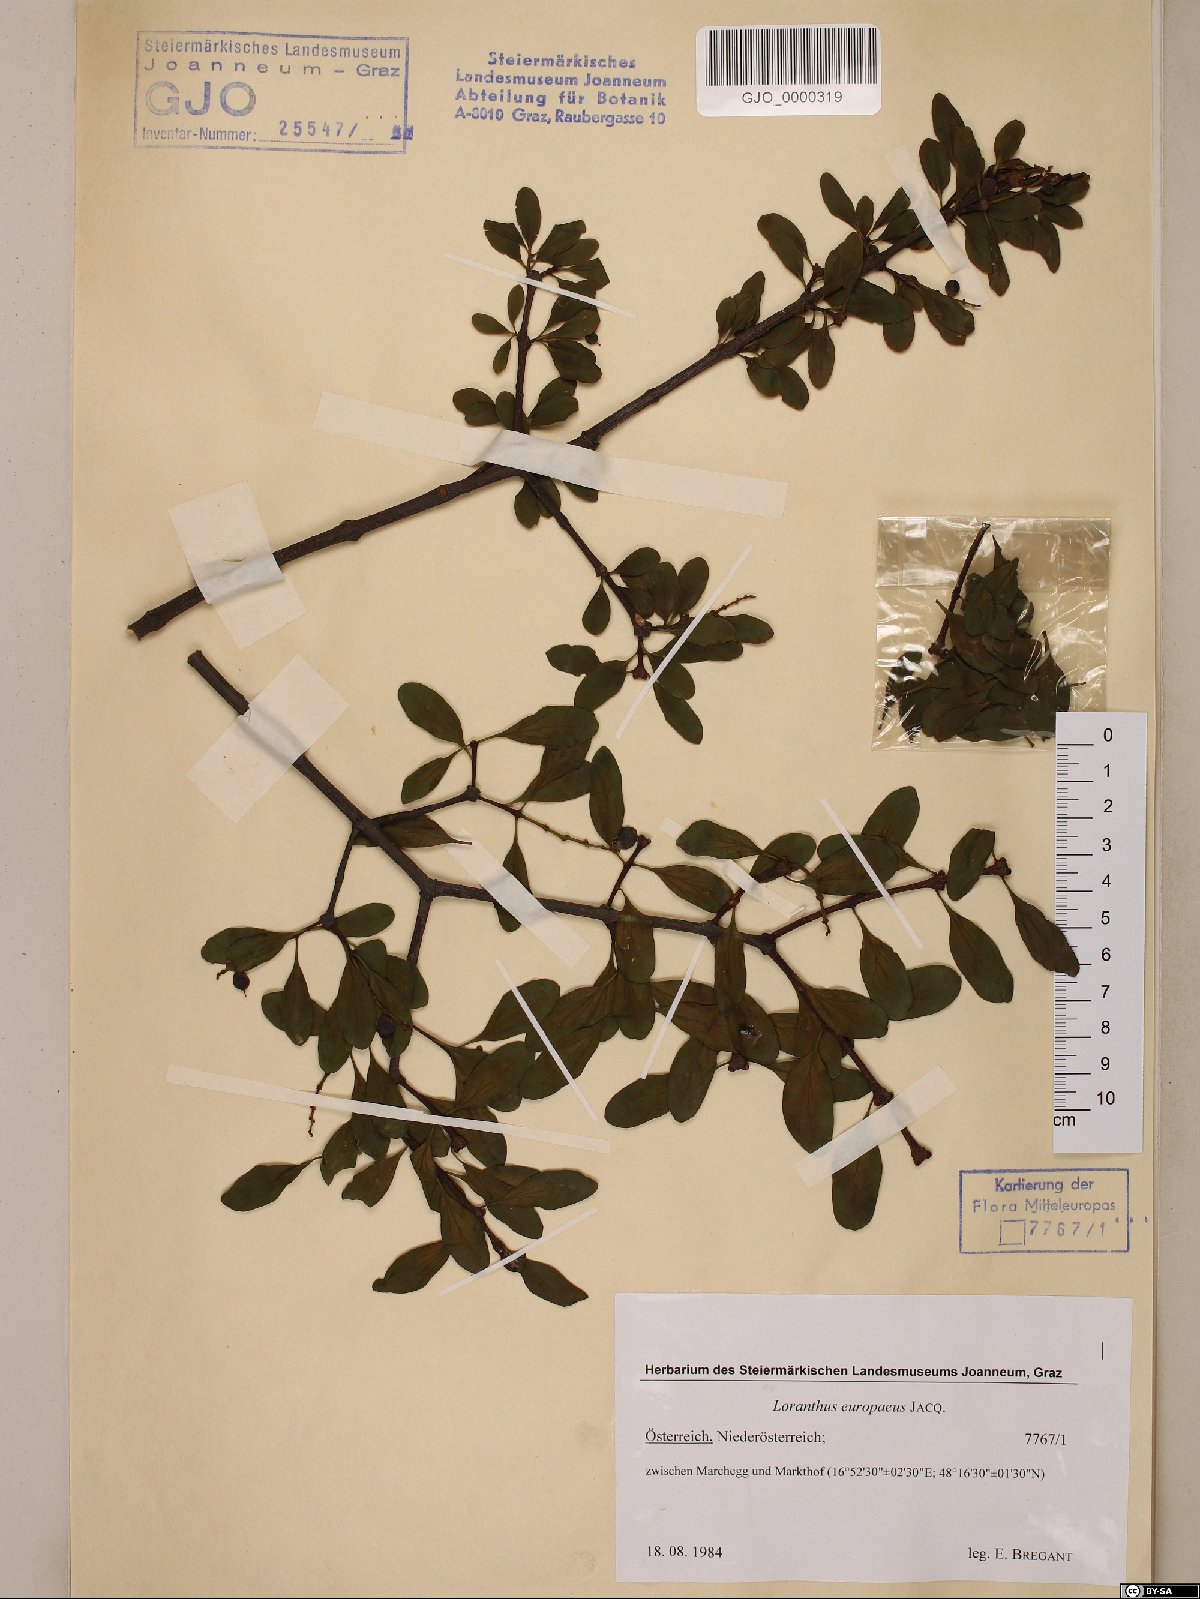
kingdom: Plantae
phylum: Tracheophyta
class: Magnoliopsida
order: Santalales
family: Loranthaceae
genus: Loranthus
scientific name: Loranthus europaeus
